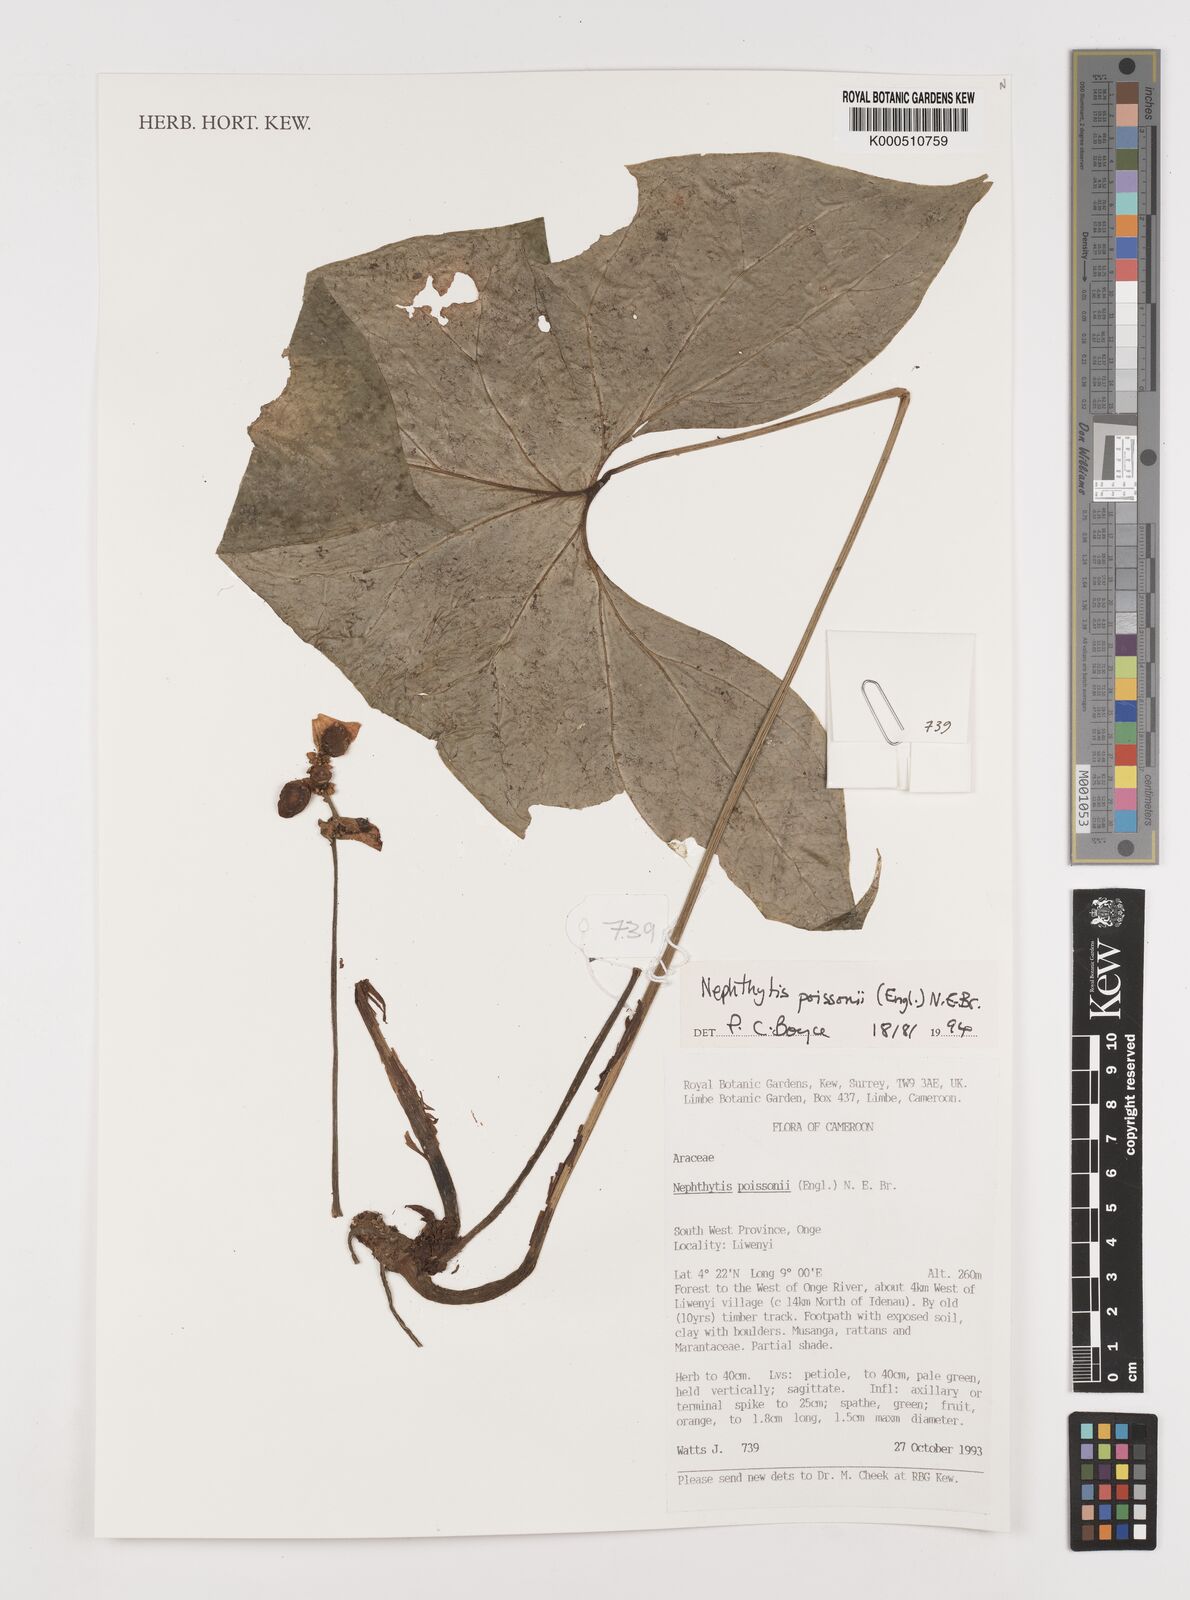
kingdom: Plantae
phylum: Tracheophyta
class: Liliopsida
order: Alismatales
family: Araceae
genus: Nephthytis
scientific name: Nephthytis poissonii
